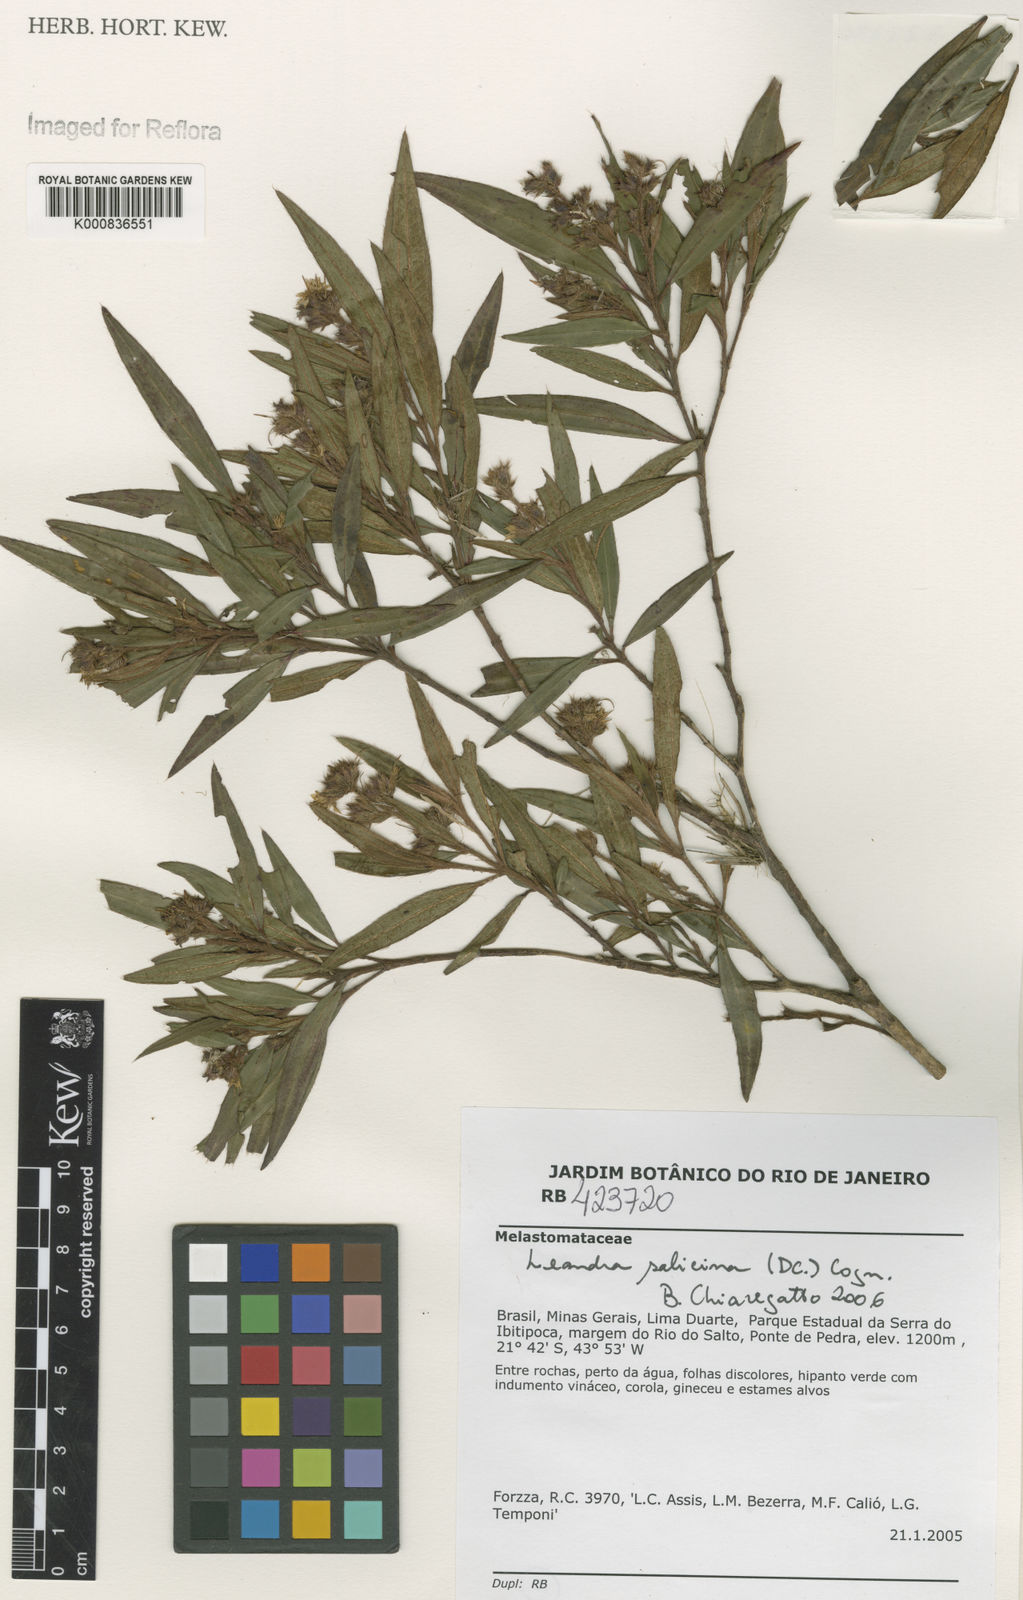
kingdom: Plantae
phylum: Tracheophyta
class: Magnoliopsida
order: Myrtales
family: Melastomataceae
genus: Miconia
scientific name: Miconia salicina
